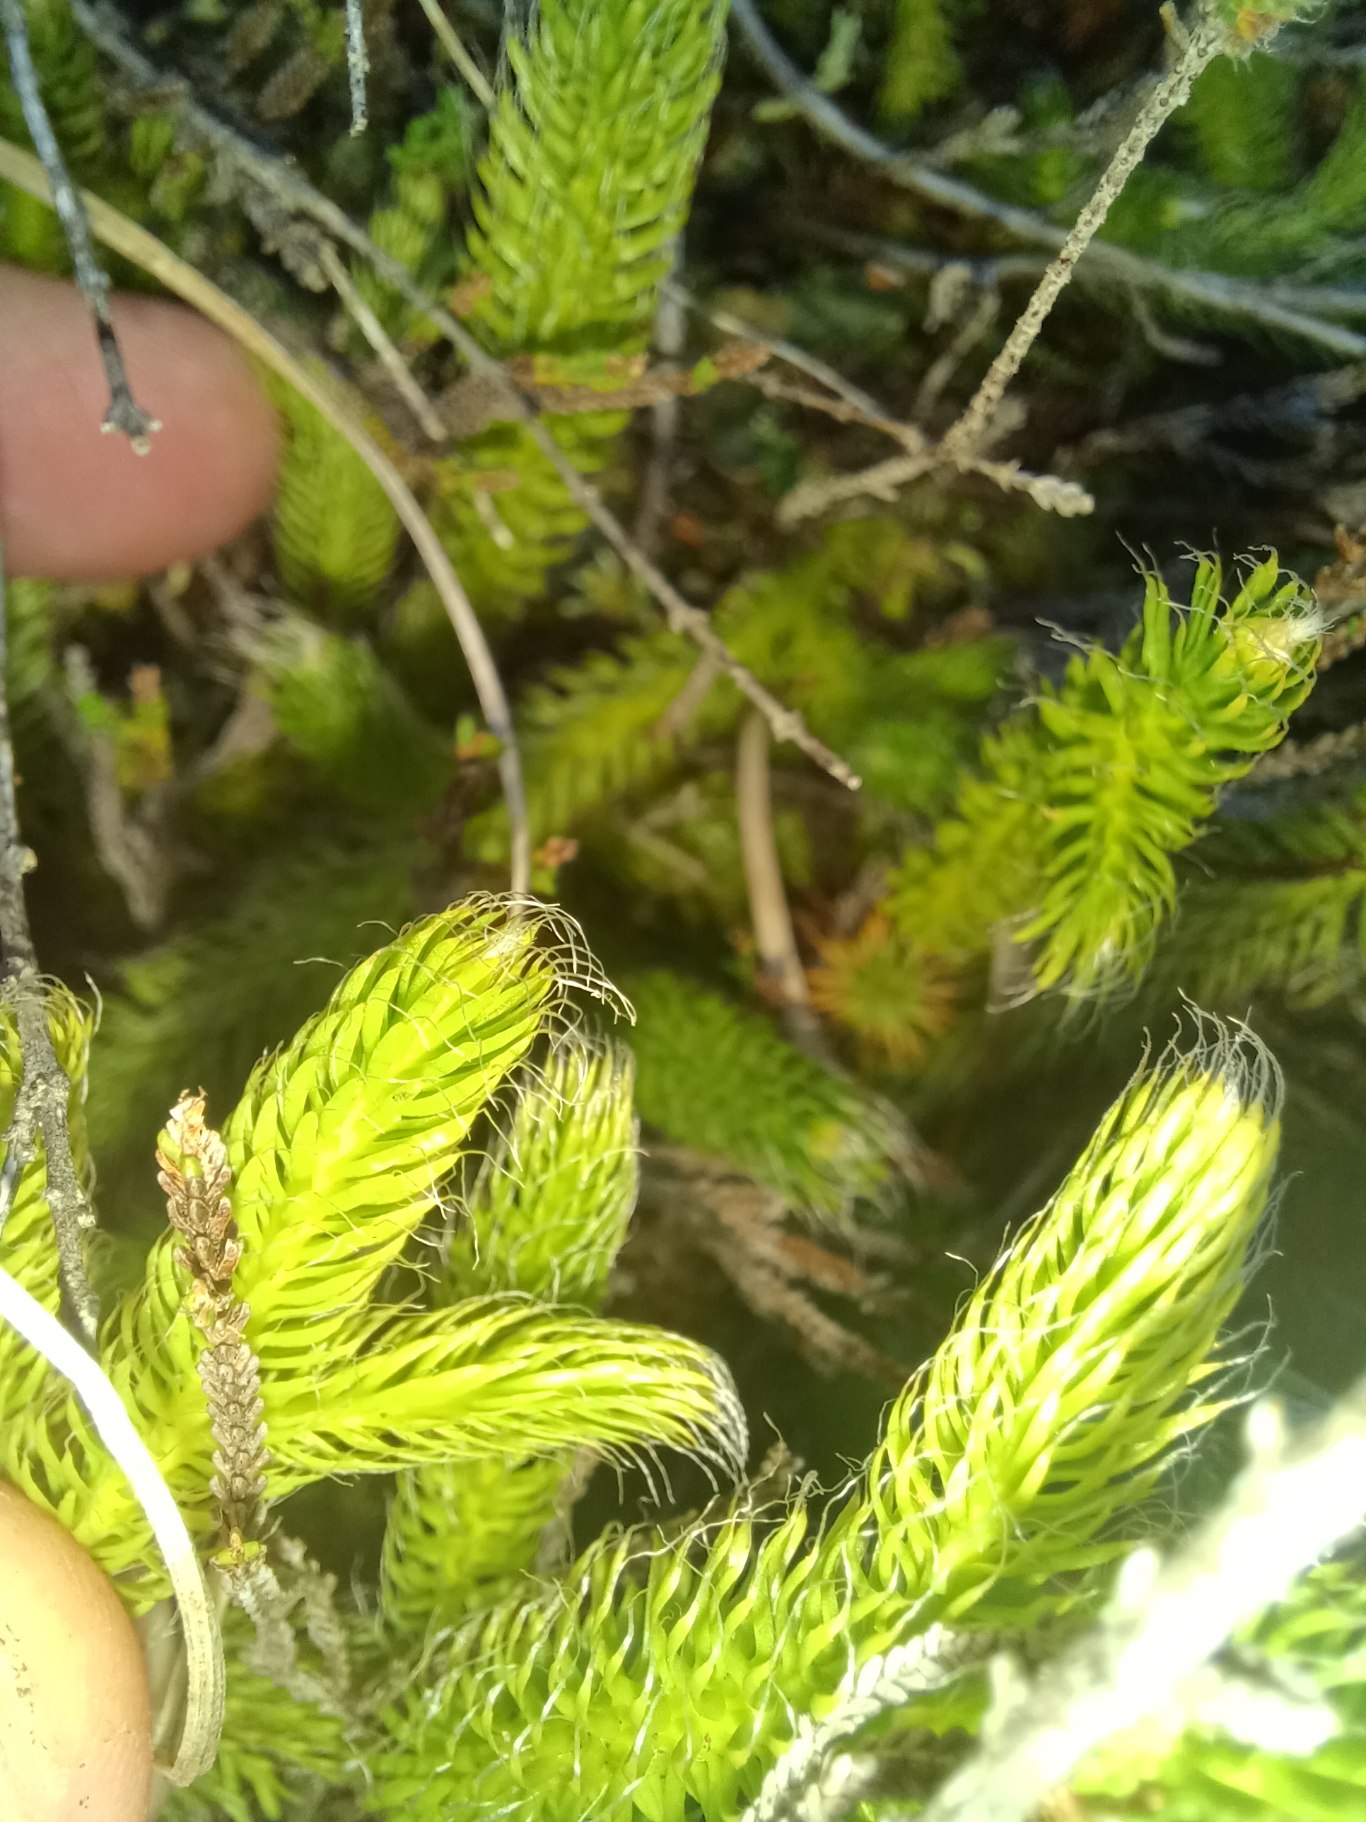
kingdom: Plantae
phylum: Tracheophyta
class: Lycopodiopsida
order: Lycopodiales
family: Lycopodiaceae
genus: Lycopodium
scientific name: Lycopodium clavatum
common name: Almindelig ulvefod
